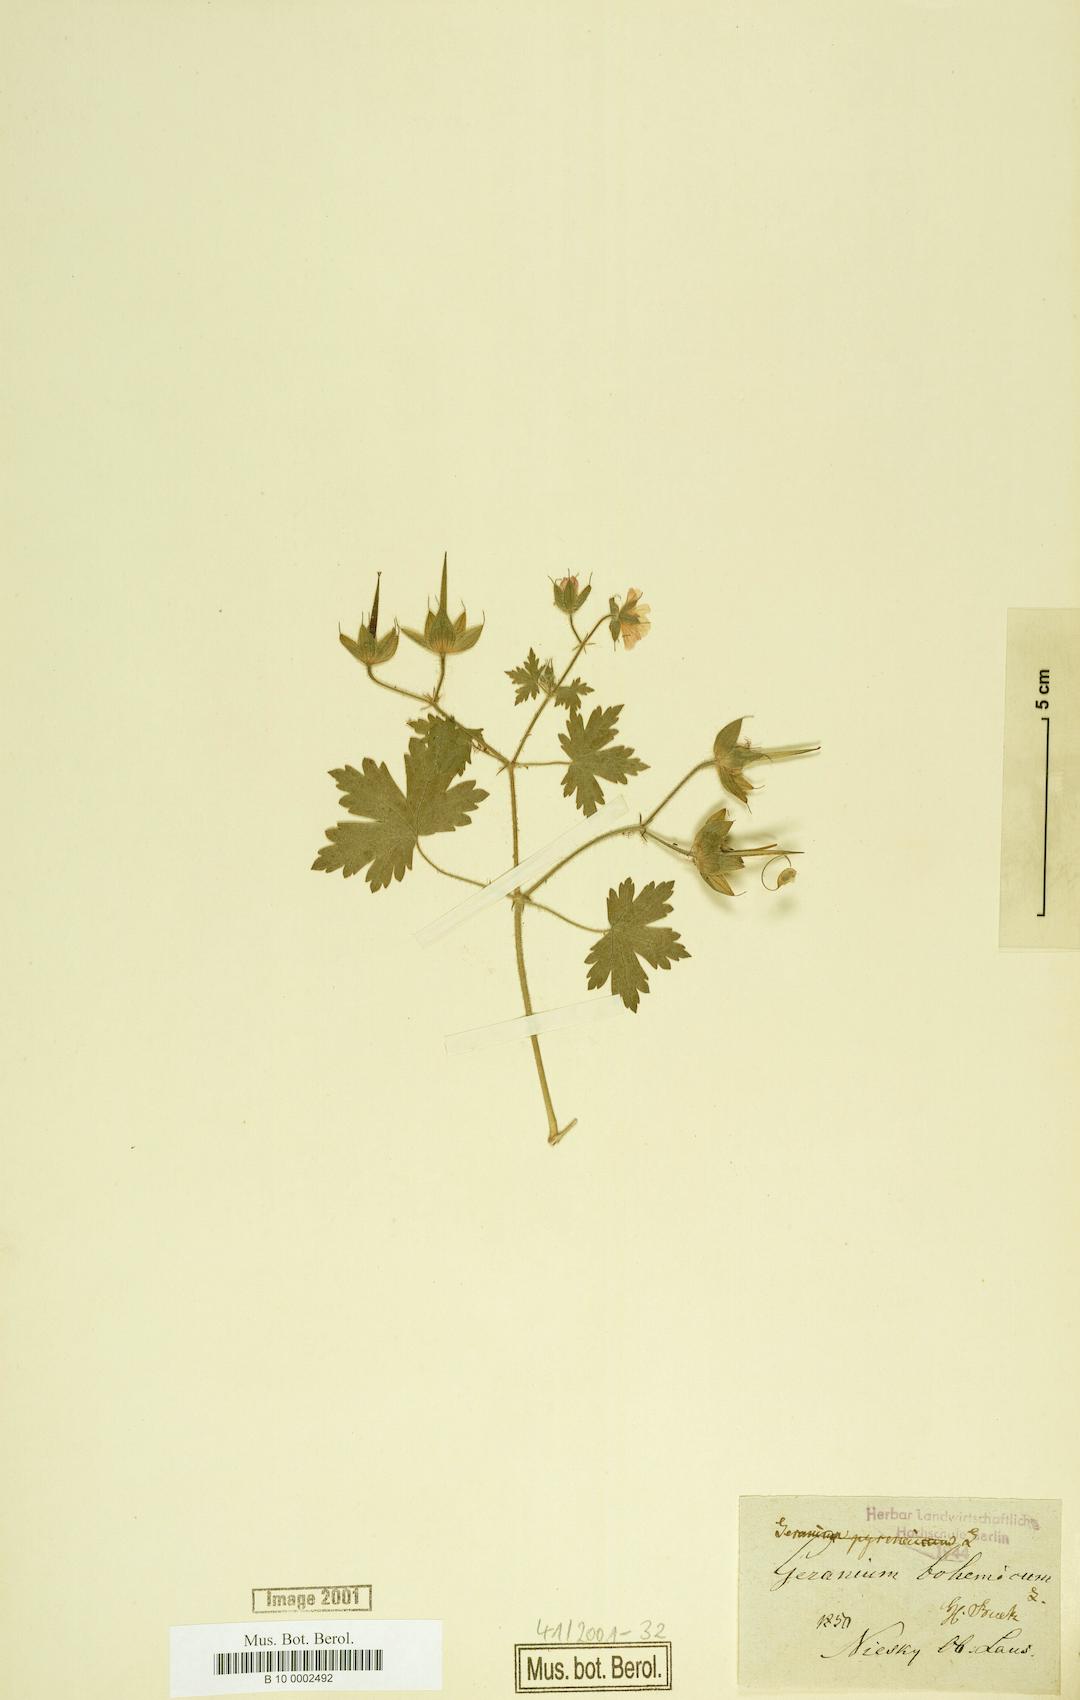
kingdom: Plantae
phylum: Tracheophyta
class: Magnoliopsida
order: Geraniales
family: Geraniaceae
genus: Geranium
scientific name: Geranium bohemicum
